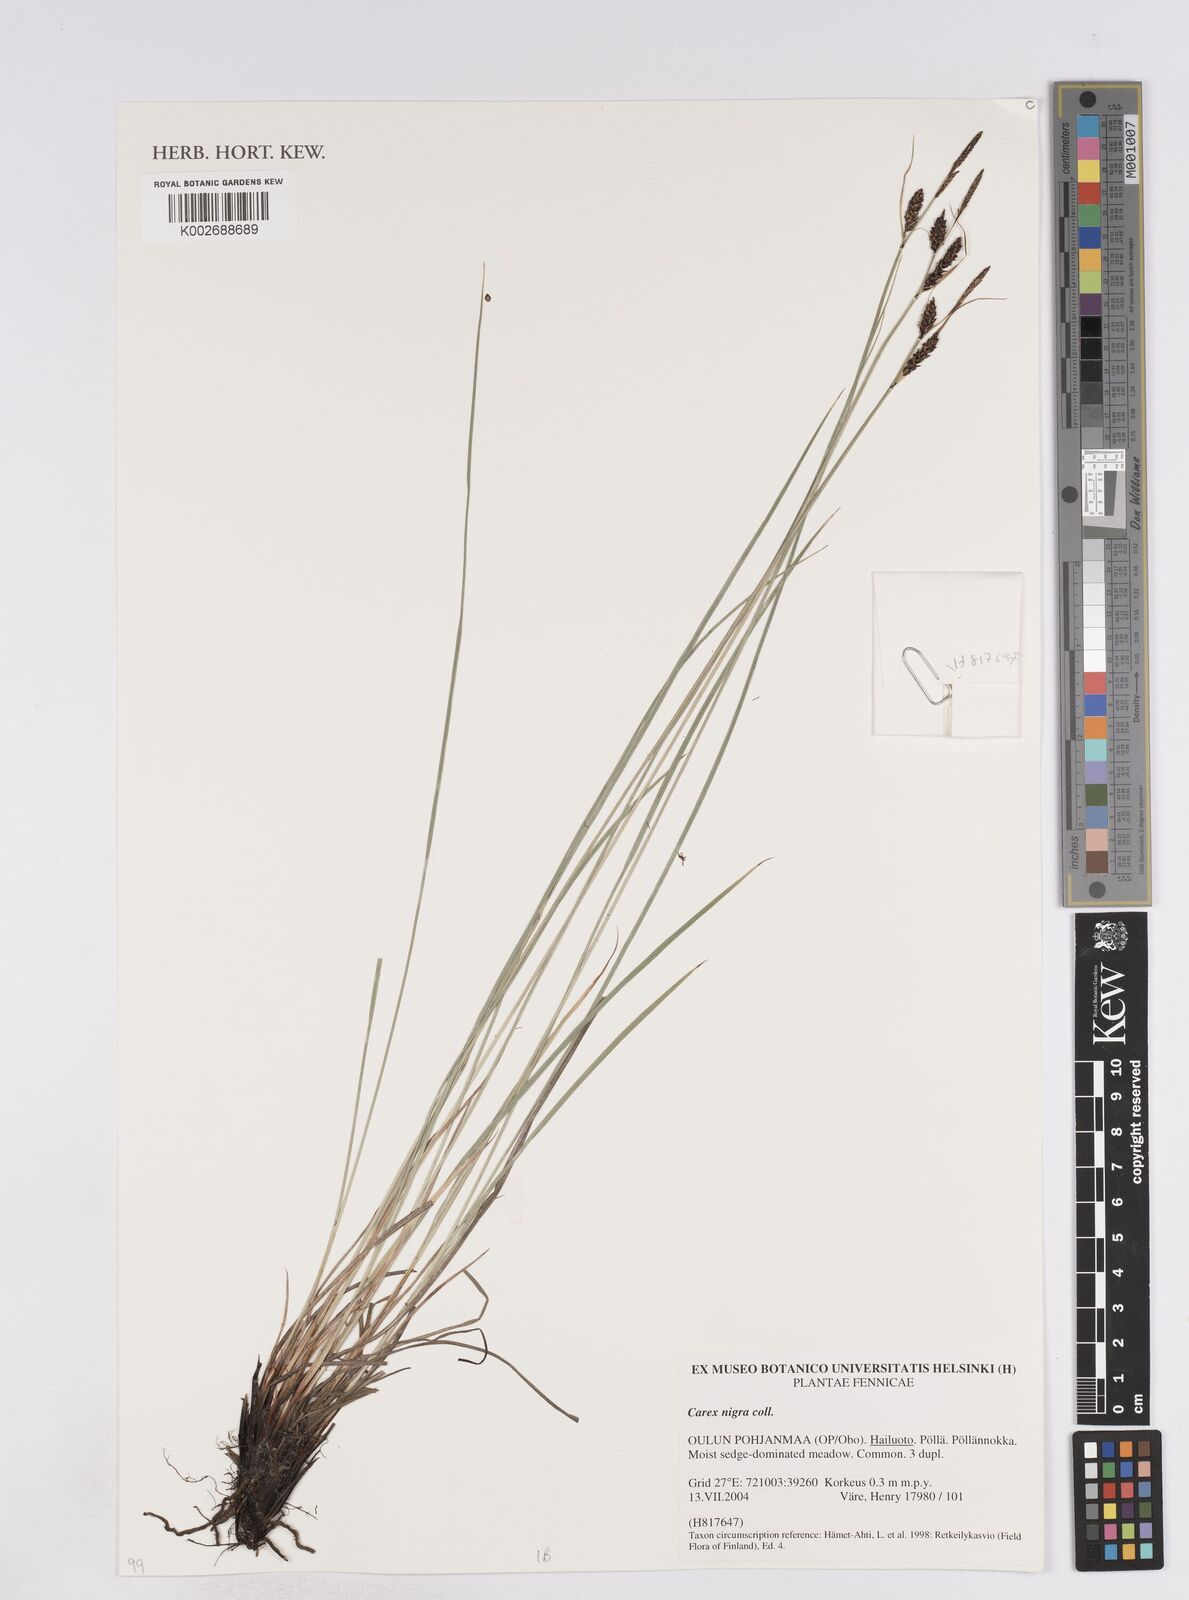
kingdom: Plantae
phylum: Tracheophyta
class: Liliopsida
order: Poales
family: Cyperaceae
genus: Carex
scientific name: Carex parviflora
